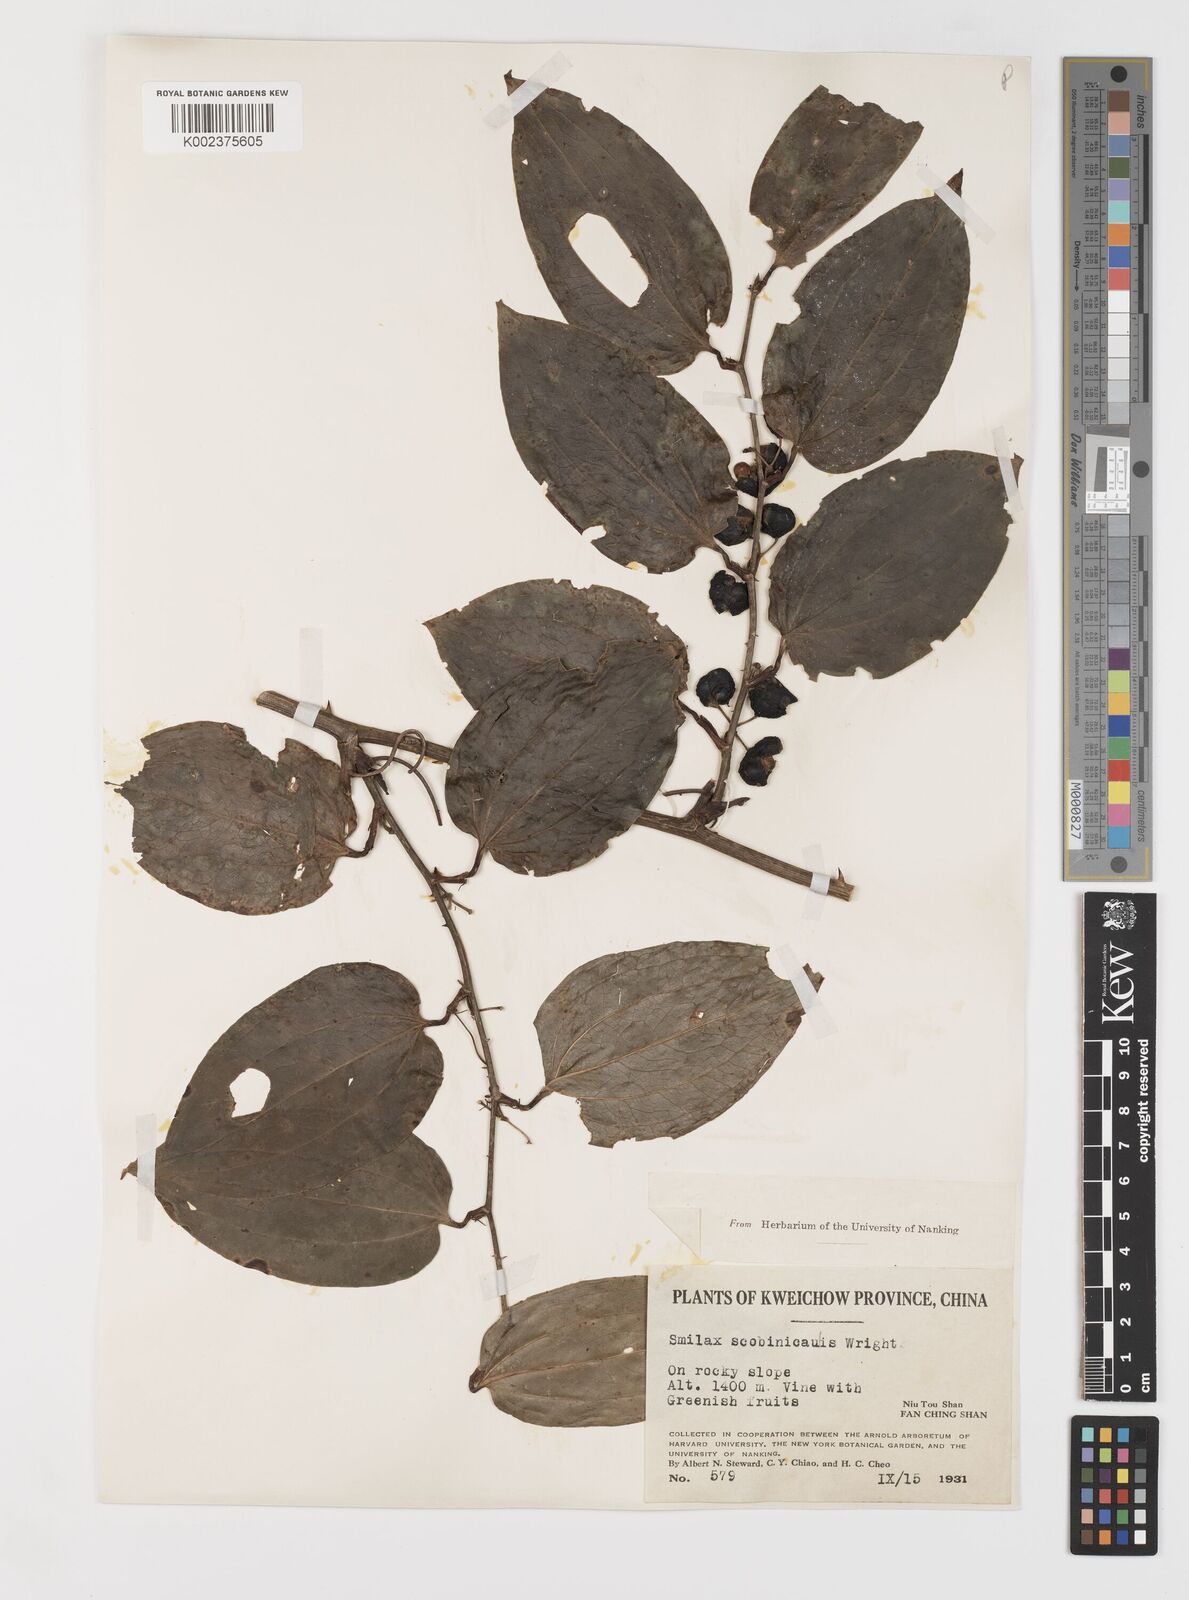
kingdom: Plantae
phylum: Tracheophyta
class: Liliopsida
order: Liliales
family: Smilacaceae
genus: Smilax
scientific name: Smilax scobinicaulis
